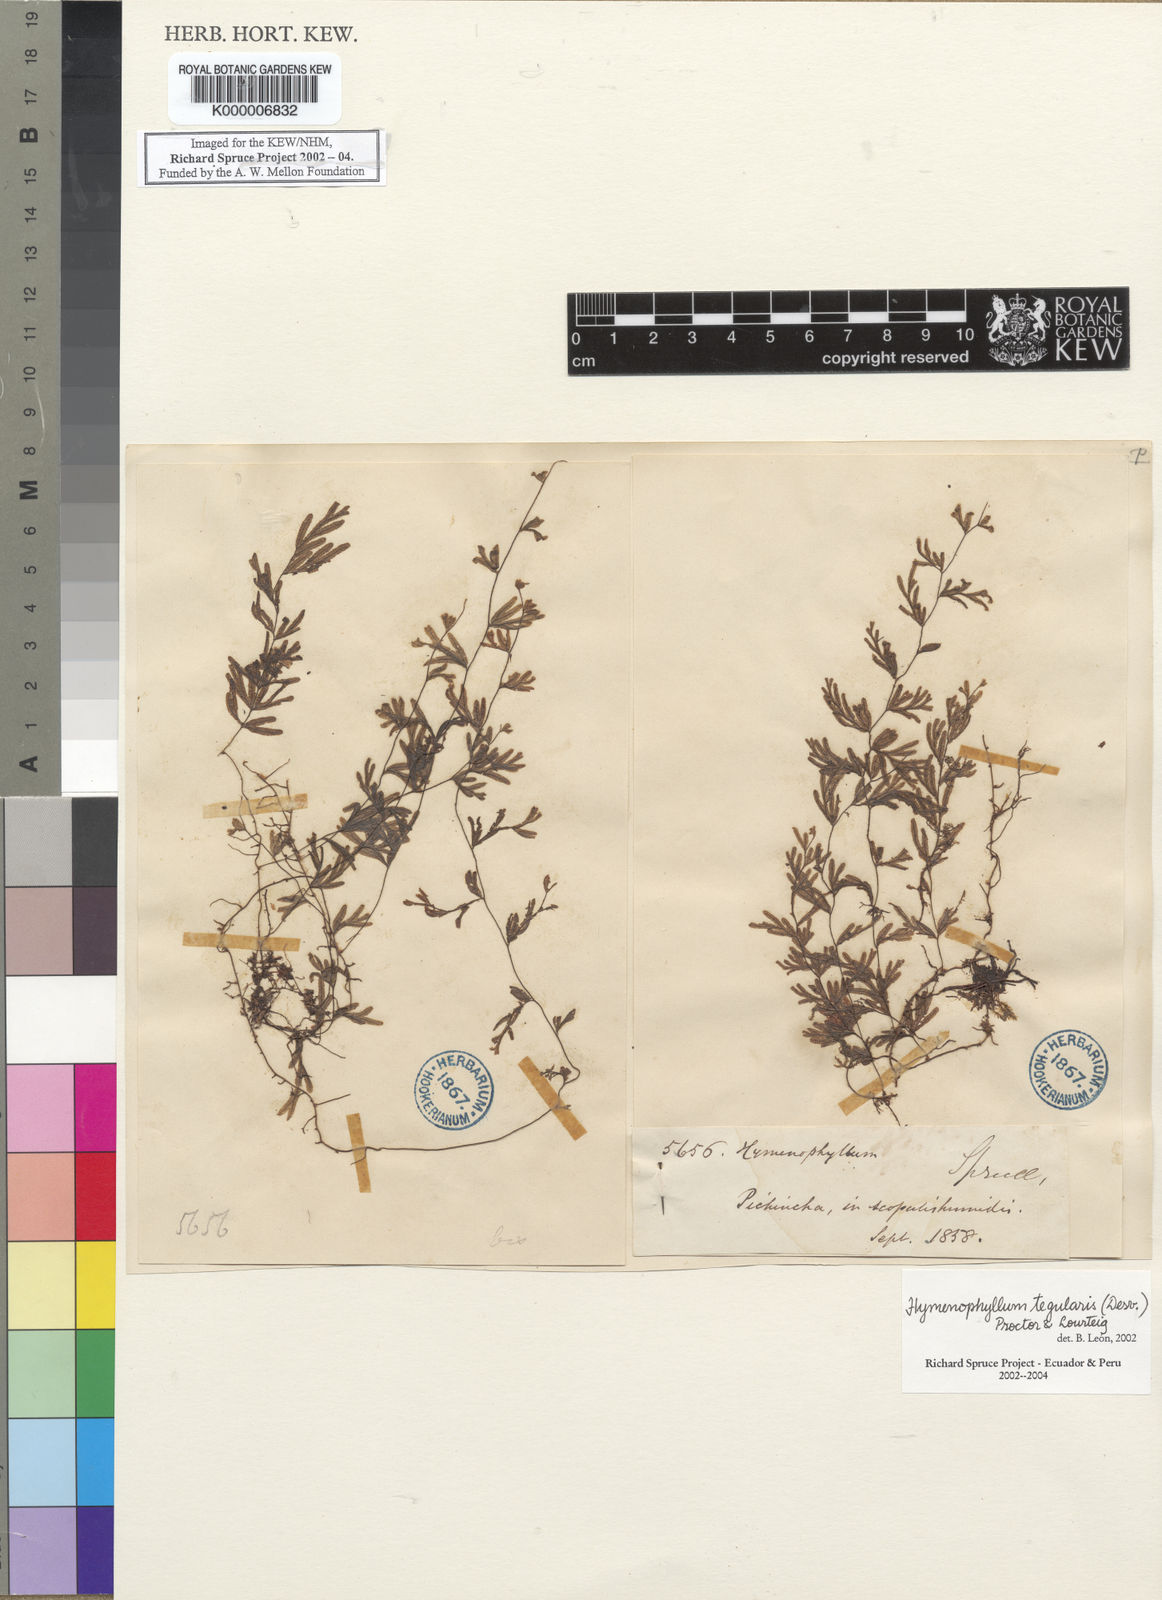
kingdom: Plantae
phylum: Tracheophyta
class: Polypodiopsida
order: Hymenophyllales
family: Hymenophyllaceae
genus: Hymenophyllum
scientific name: Hymenophyllum tegularis
